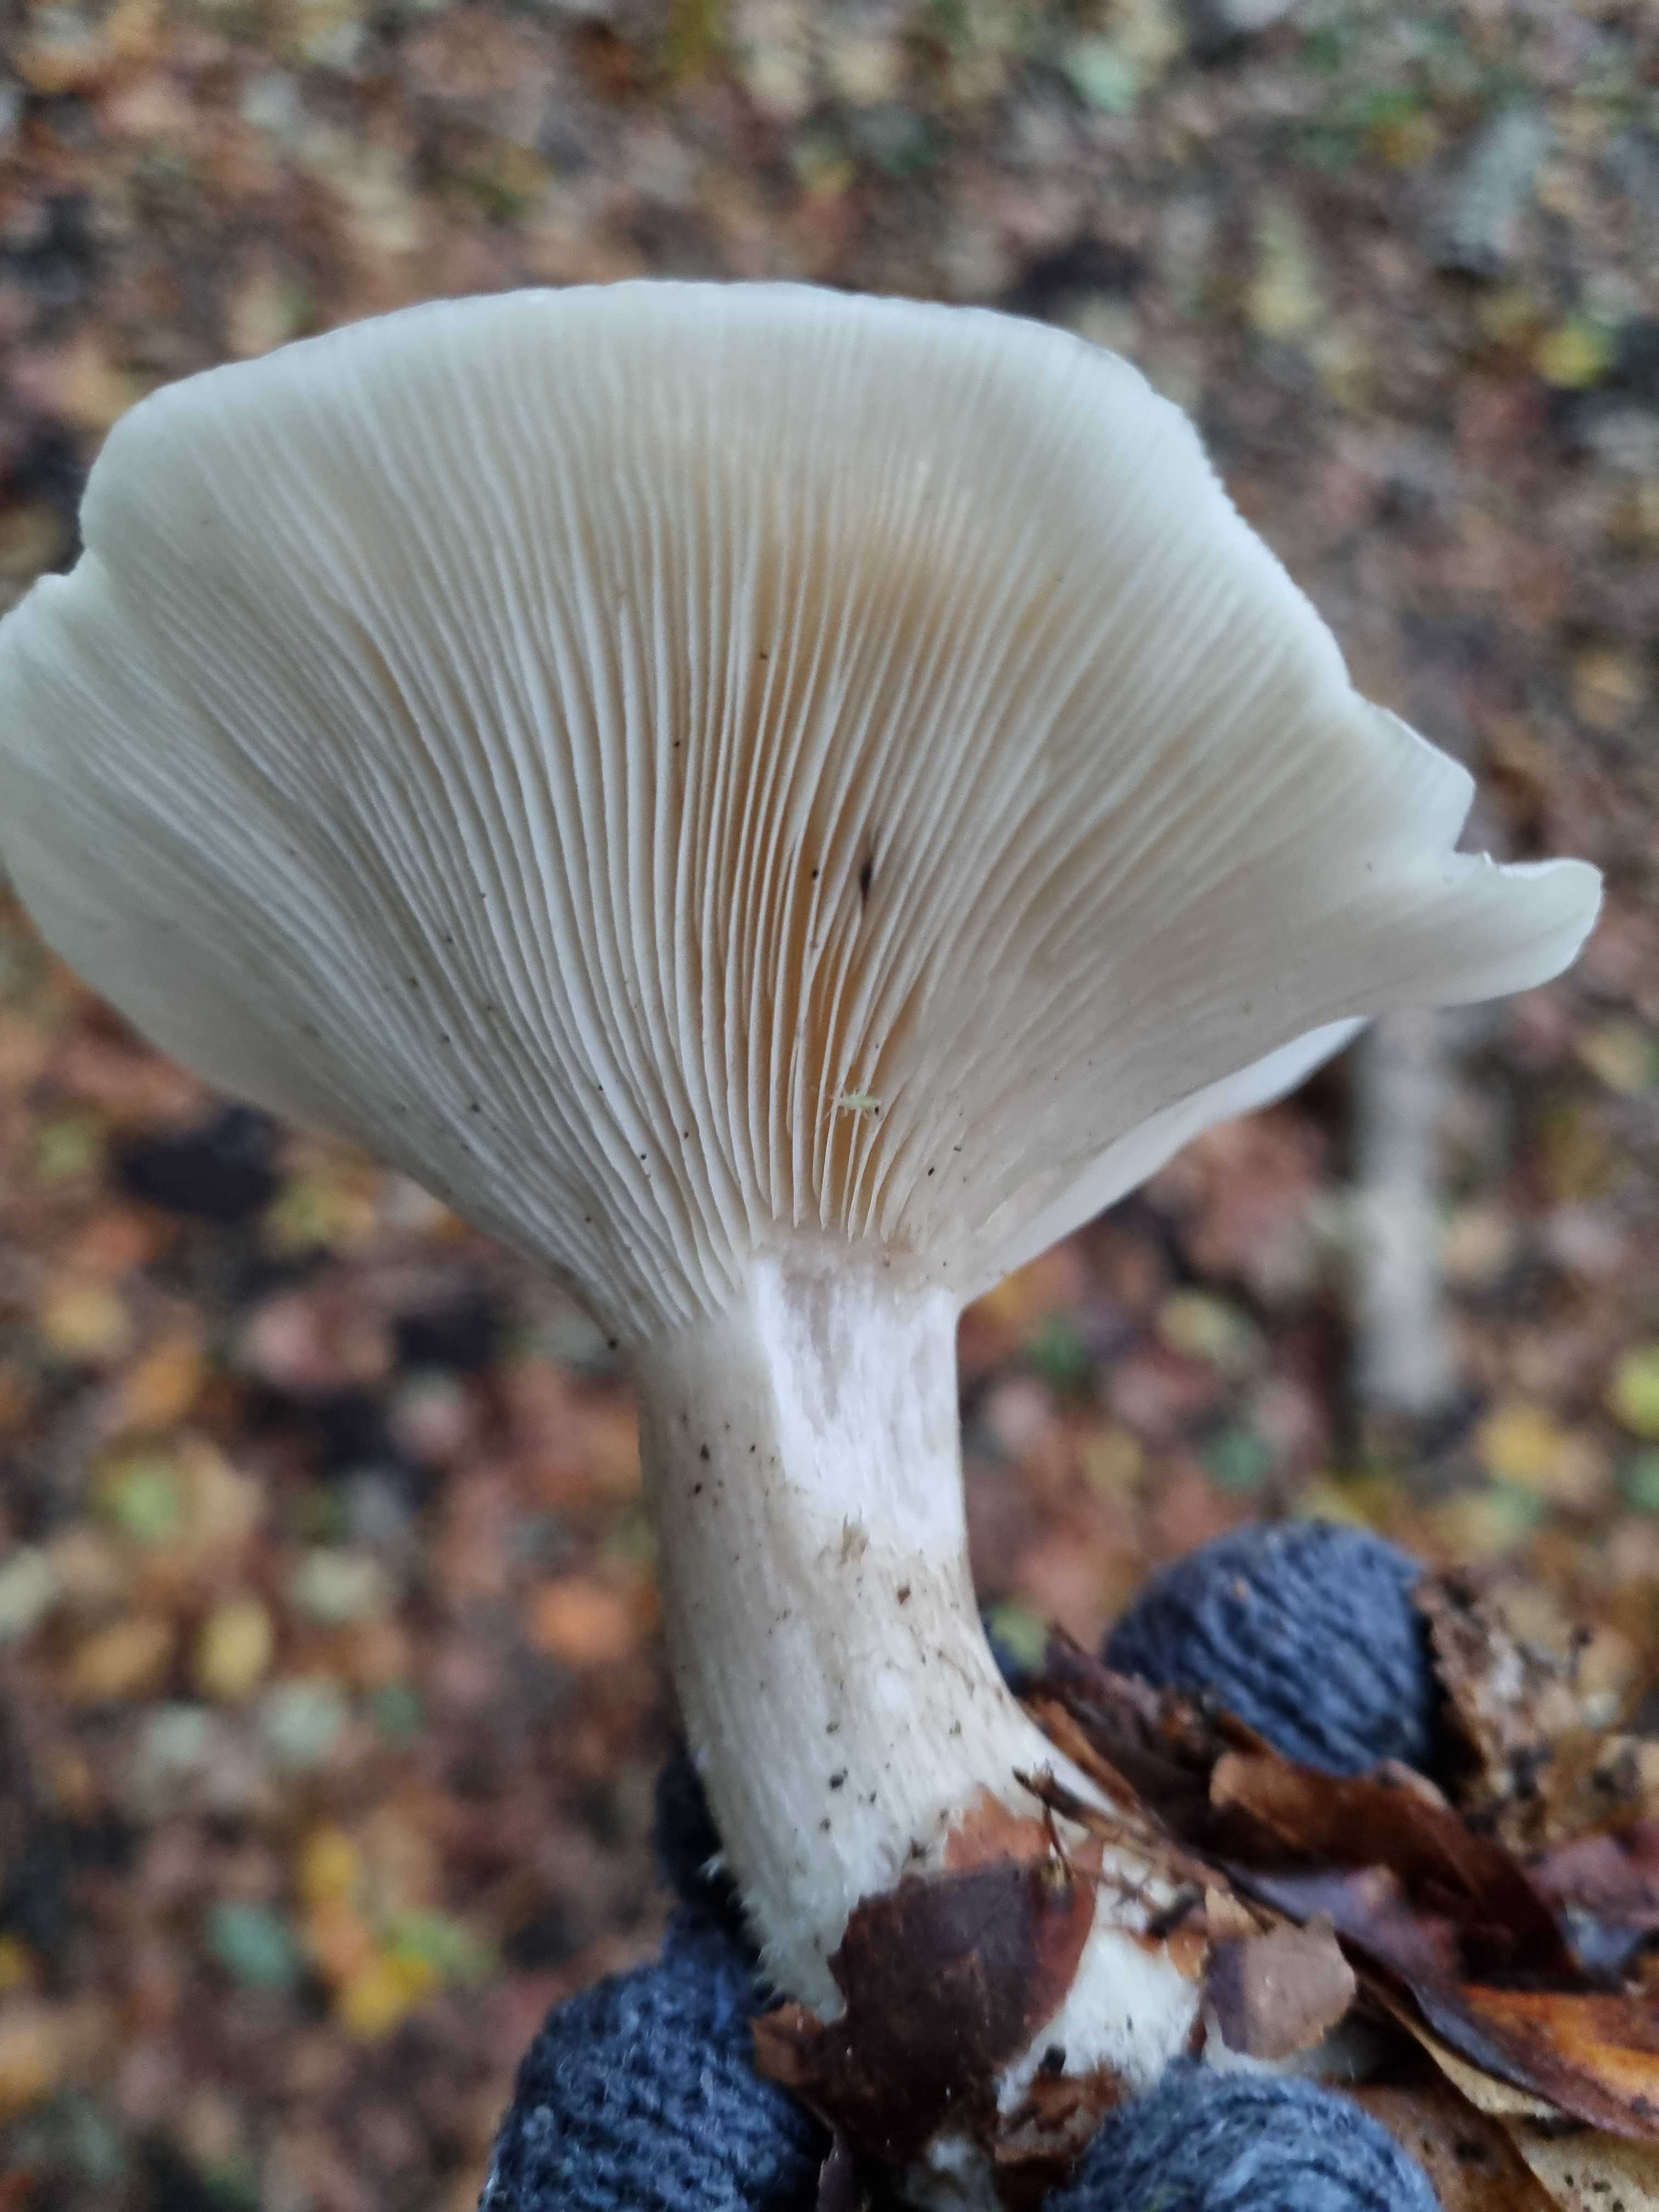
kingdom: Fungi
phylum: Basidiomycota
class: Agaricomycetes
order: Agaricales
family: Tricholomataceae
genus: Clitocybe
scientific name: Clitocybe nebularis
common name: tåge-tragthat
